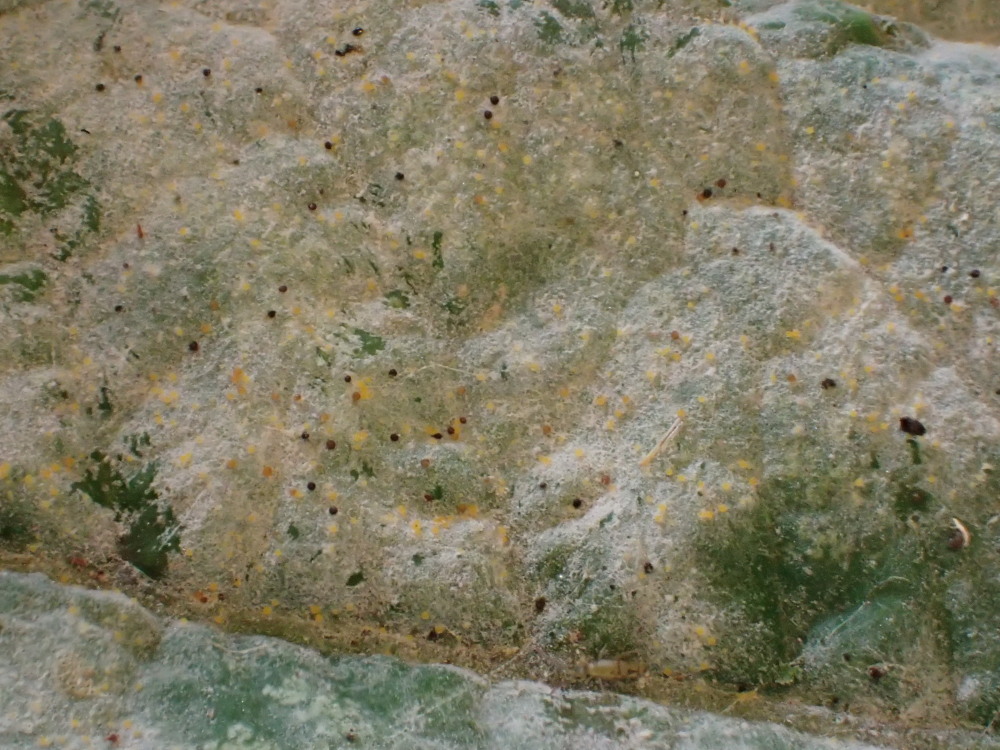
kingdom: Fungi
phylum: Ascomycota
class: Leotiomycetes
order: Helotiales
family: Erysiphaceae
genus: Sawadaea
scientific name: Sawadaea bicornis
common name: Maple mildew
